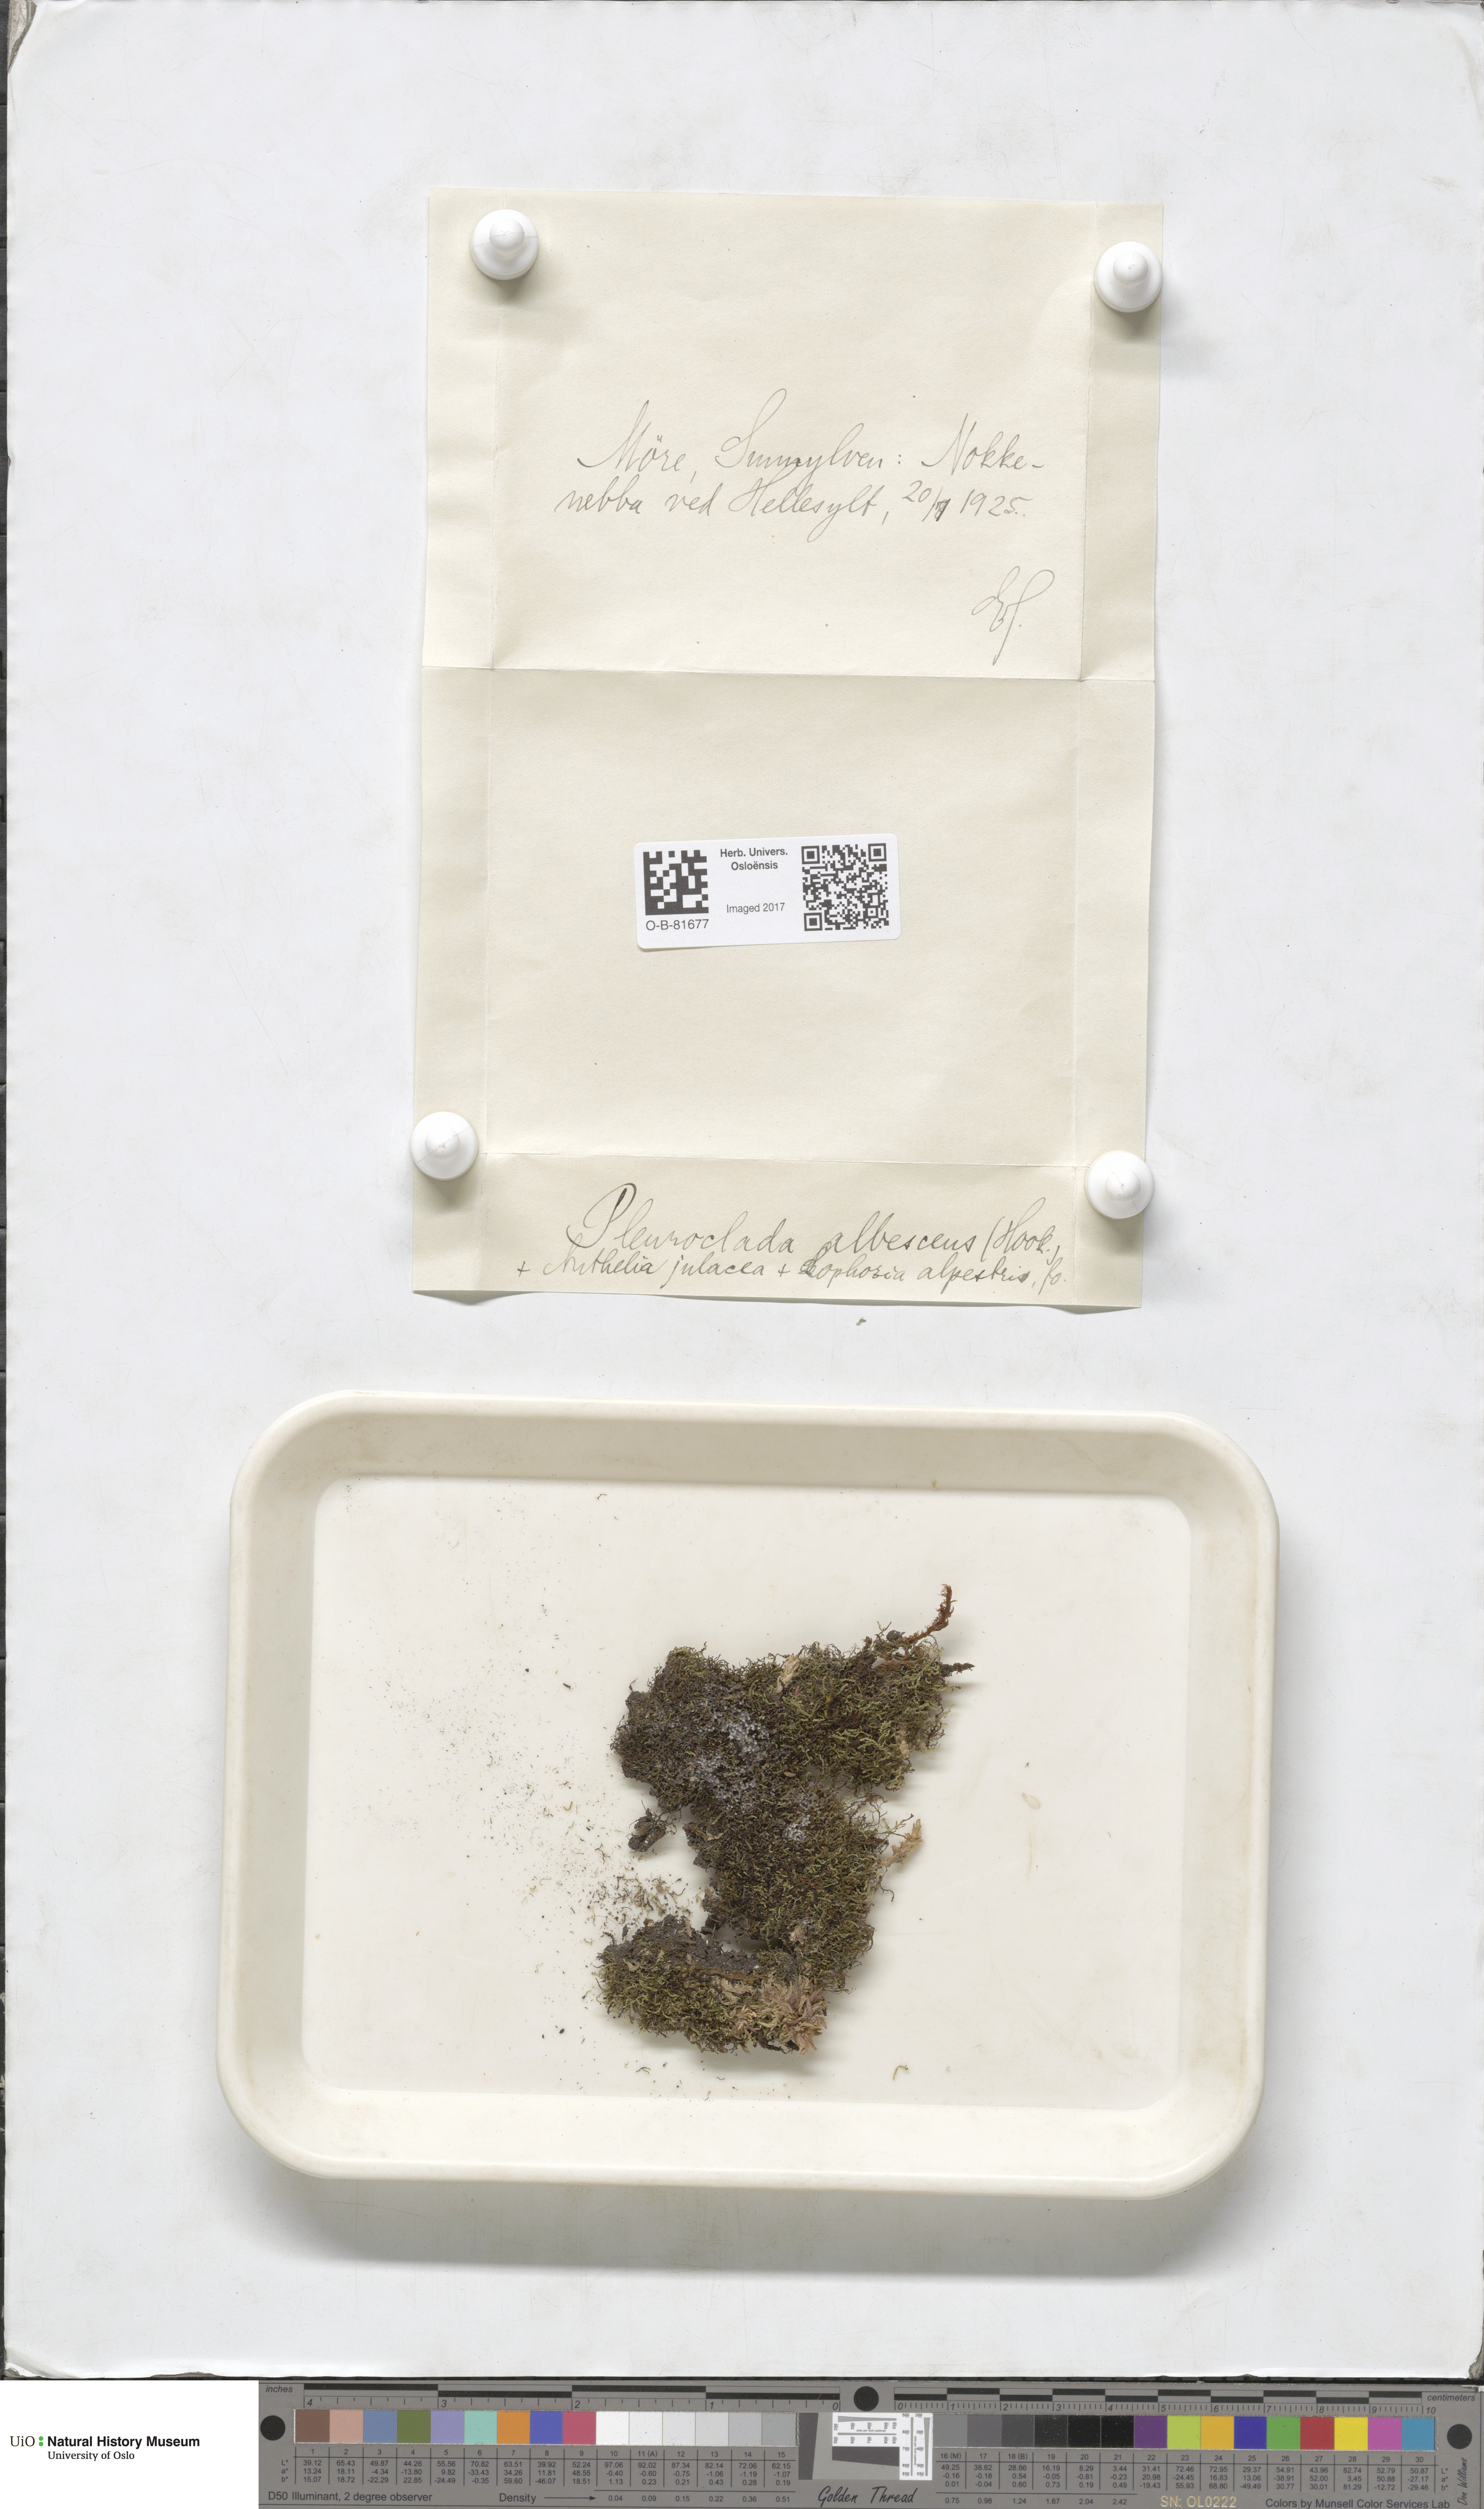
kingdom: Plantae
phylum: Marchantiophyta
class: Jungermanniopsida
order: Jungermanniales
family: Cephaloziaceae
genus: Fuscocephaloziopsis
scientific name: Fuscocephaloziopsis albescens
